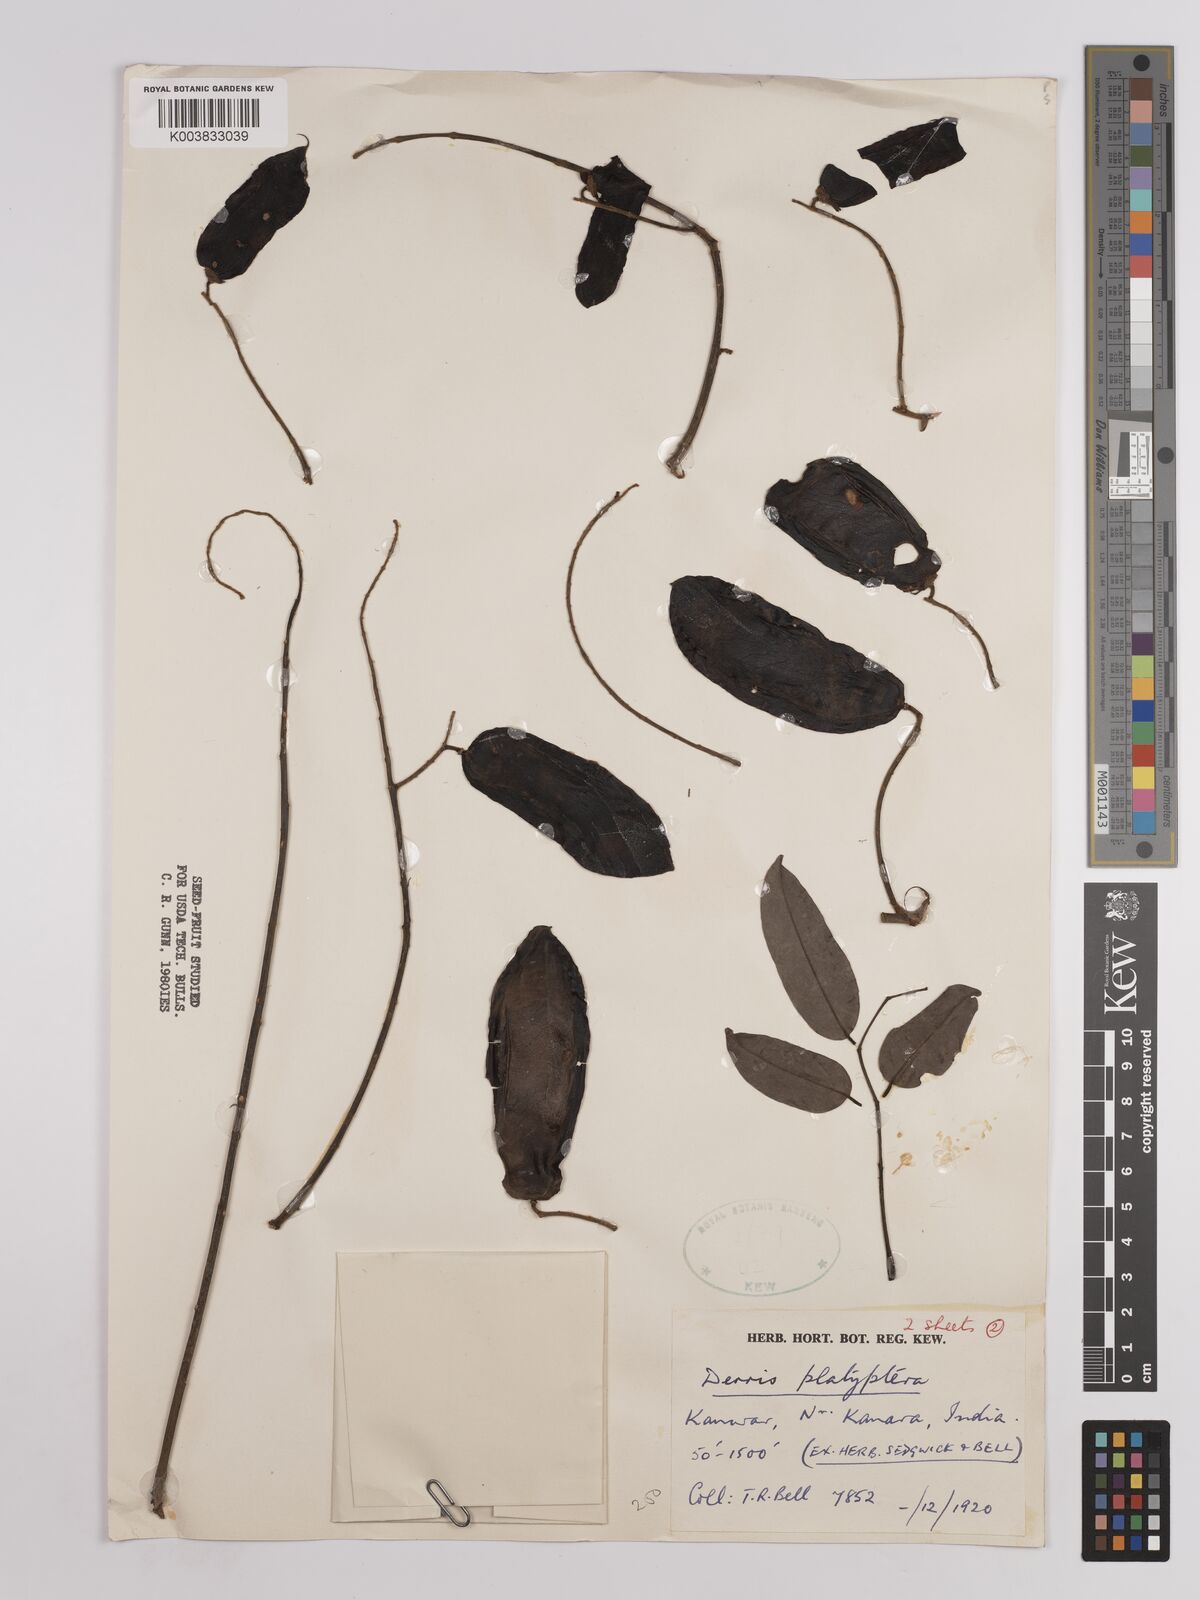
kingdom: Plantae
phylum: Tracheophyta
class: Magnoliopsida
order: Fabales
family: Fabaceae
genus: Aganope
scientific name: Aganope thyrsiflora
